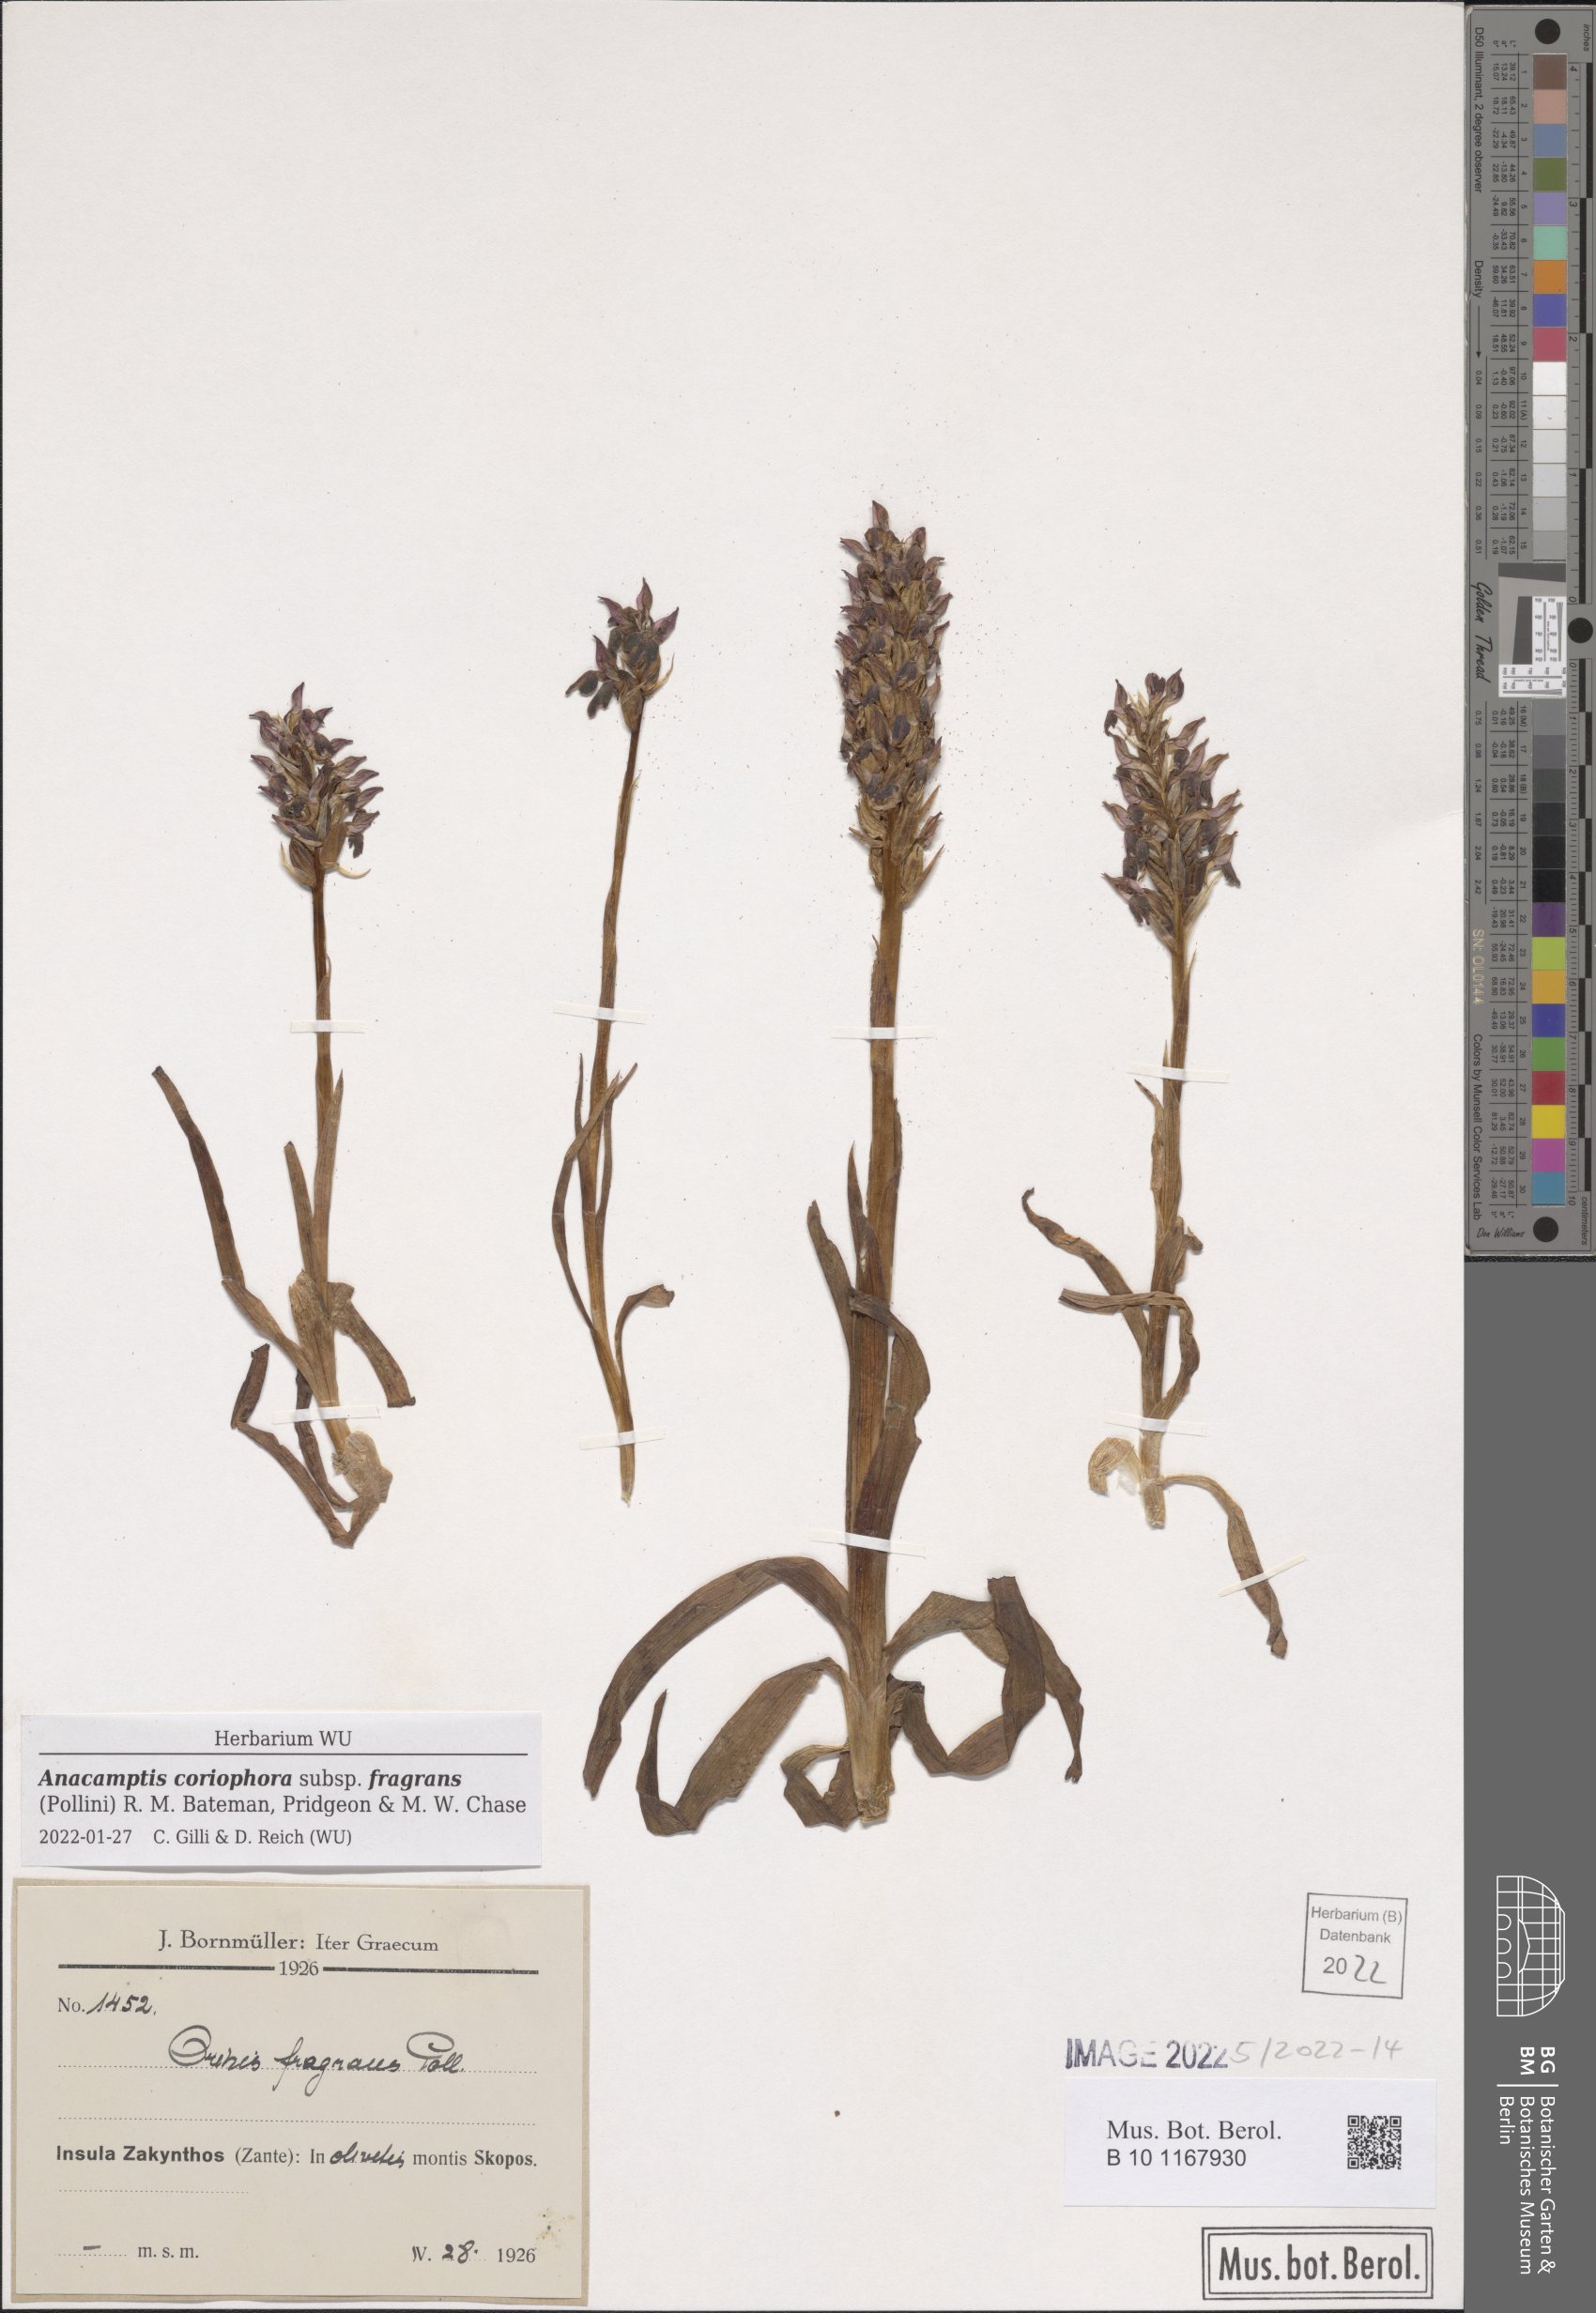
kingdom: Plantae
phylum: Tracheophyta
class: Liliopsida
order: Asparagales
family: Orchidaceae
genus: Anacamptis
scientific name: Anacamptis coriophora
